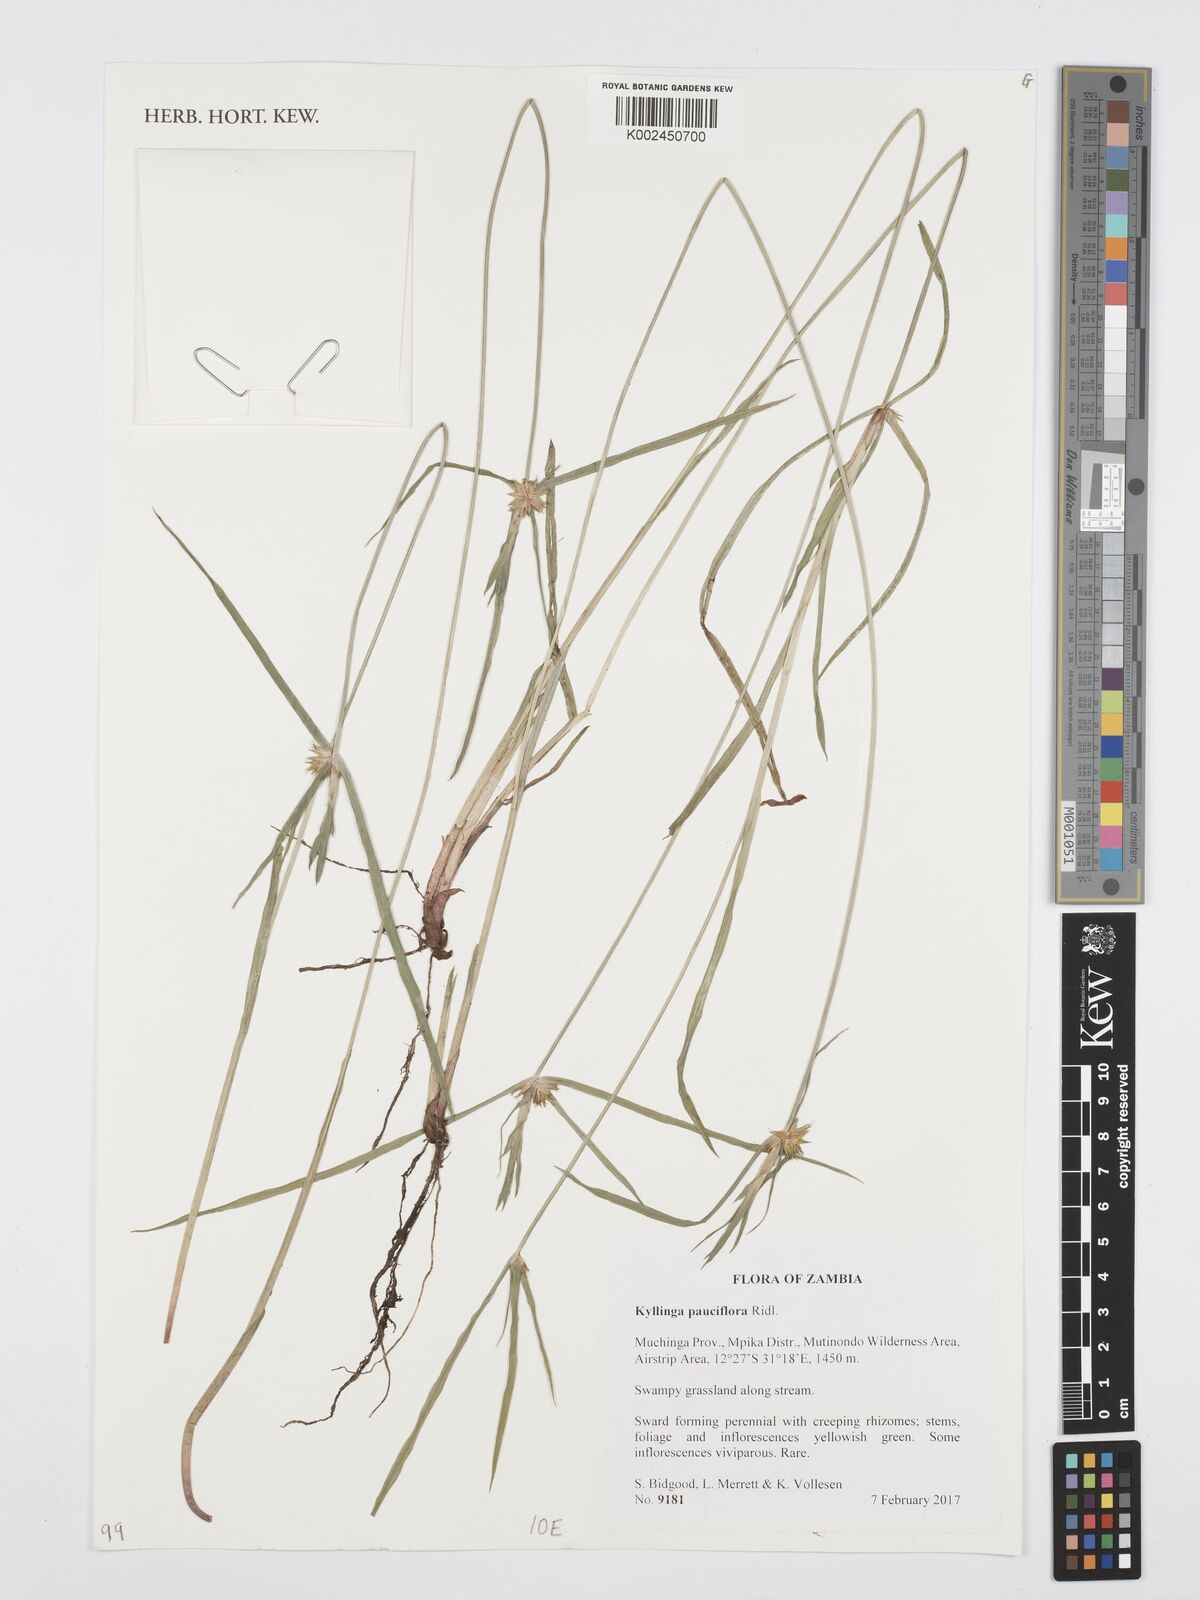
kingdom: Plantae
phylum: Tracheophyta
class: Liliopsida
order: Poales
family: Cyperaceae
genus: Cyperus
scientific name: Cyperus
